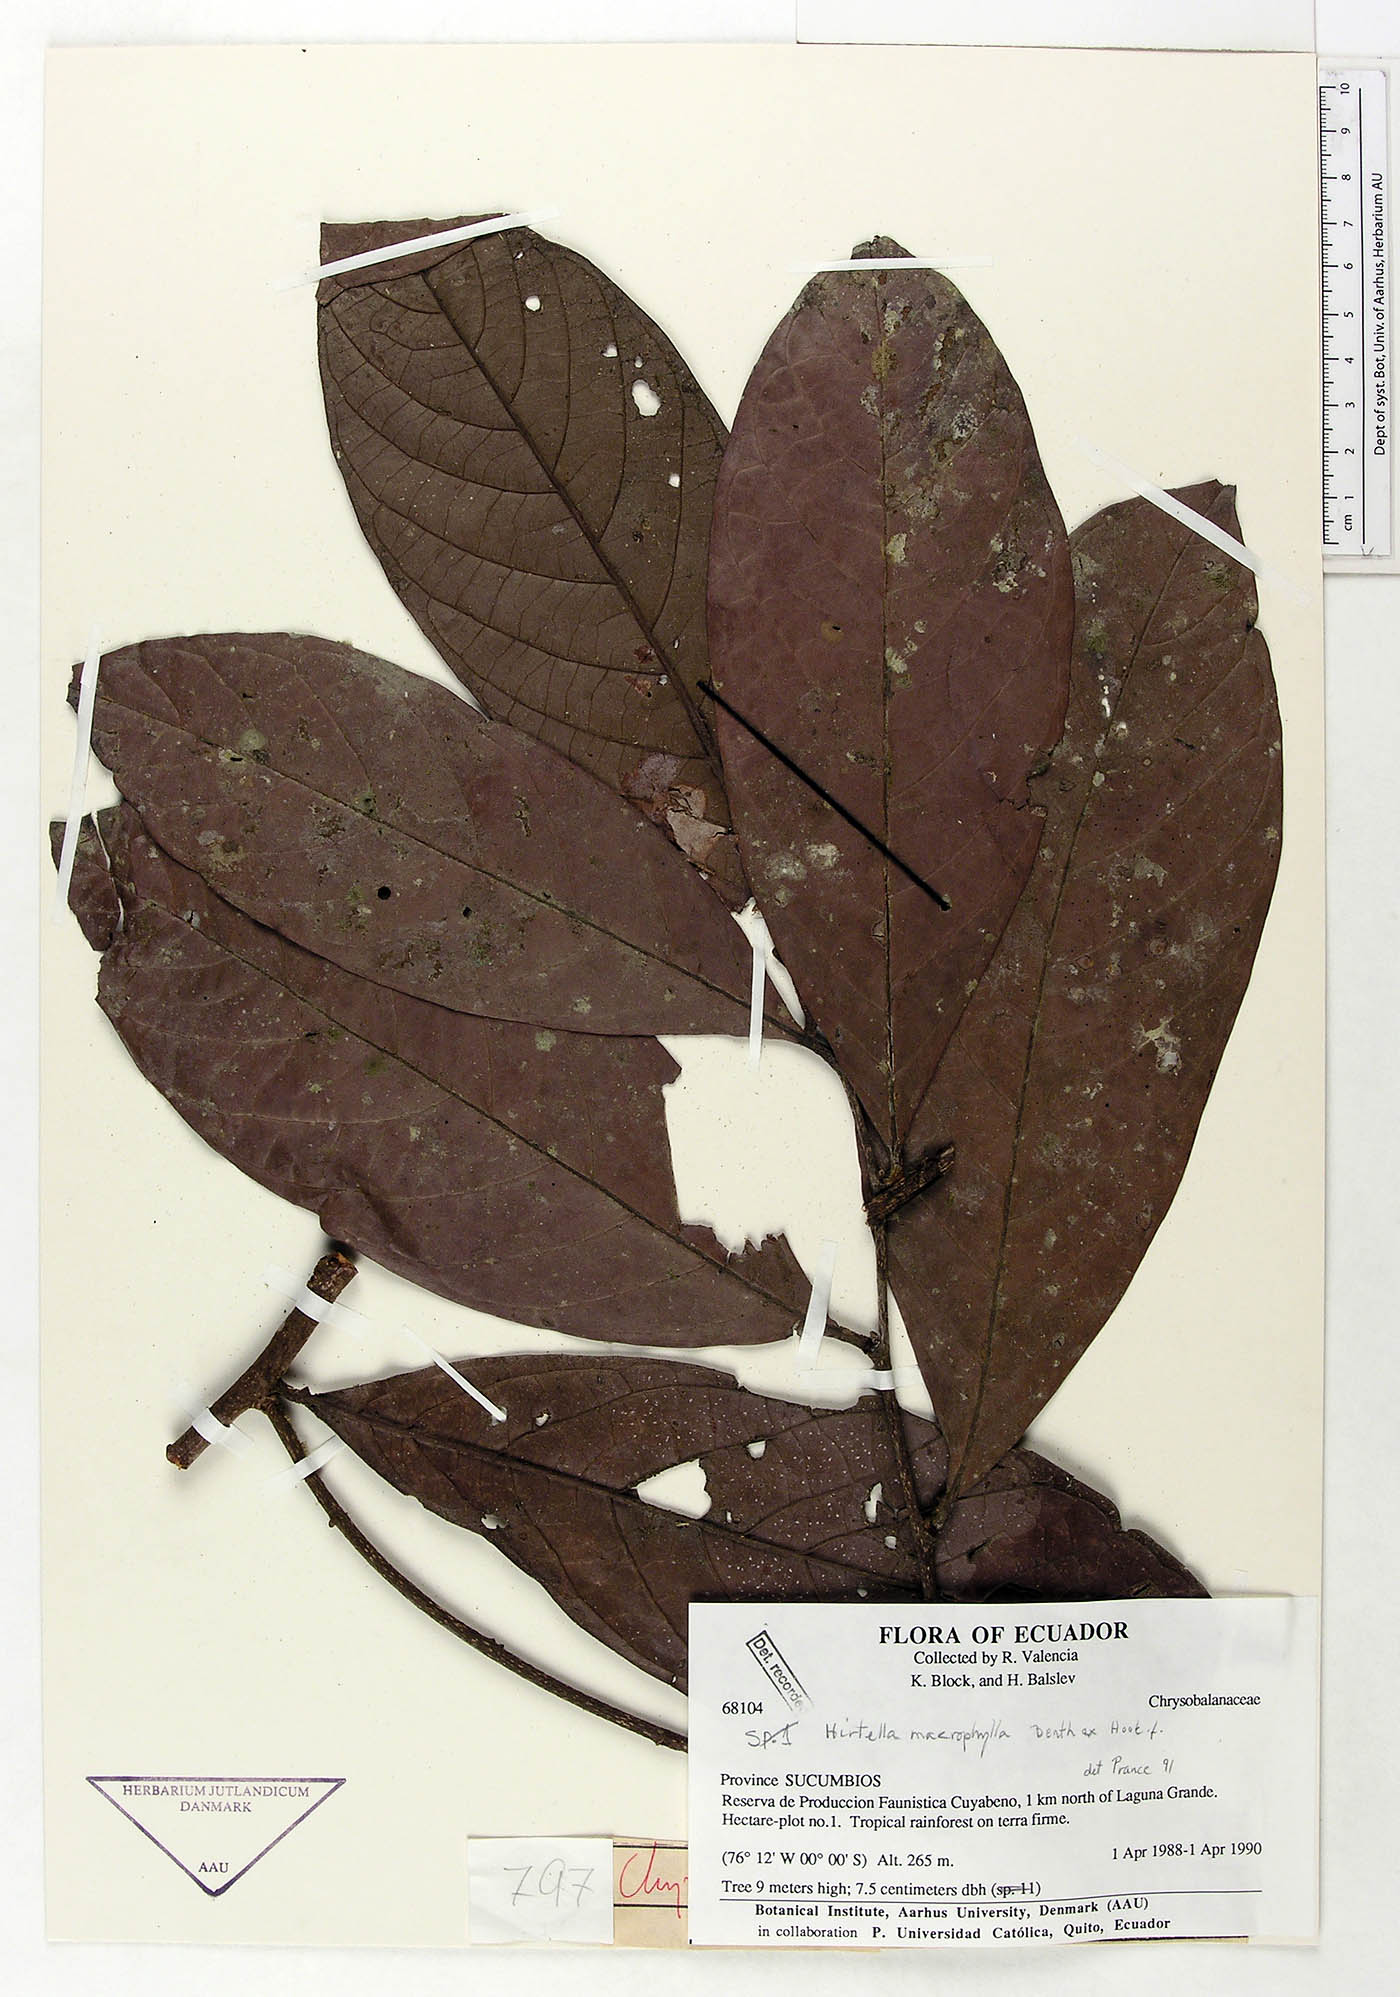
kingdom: Plantae
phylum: Tracheophyta
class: Magnoliopsida
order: Malpighiales
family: Chrysobalanaceae
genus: Hirtella
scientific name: Hirtella macrophylla
